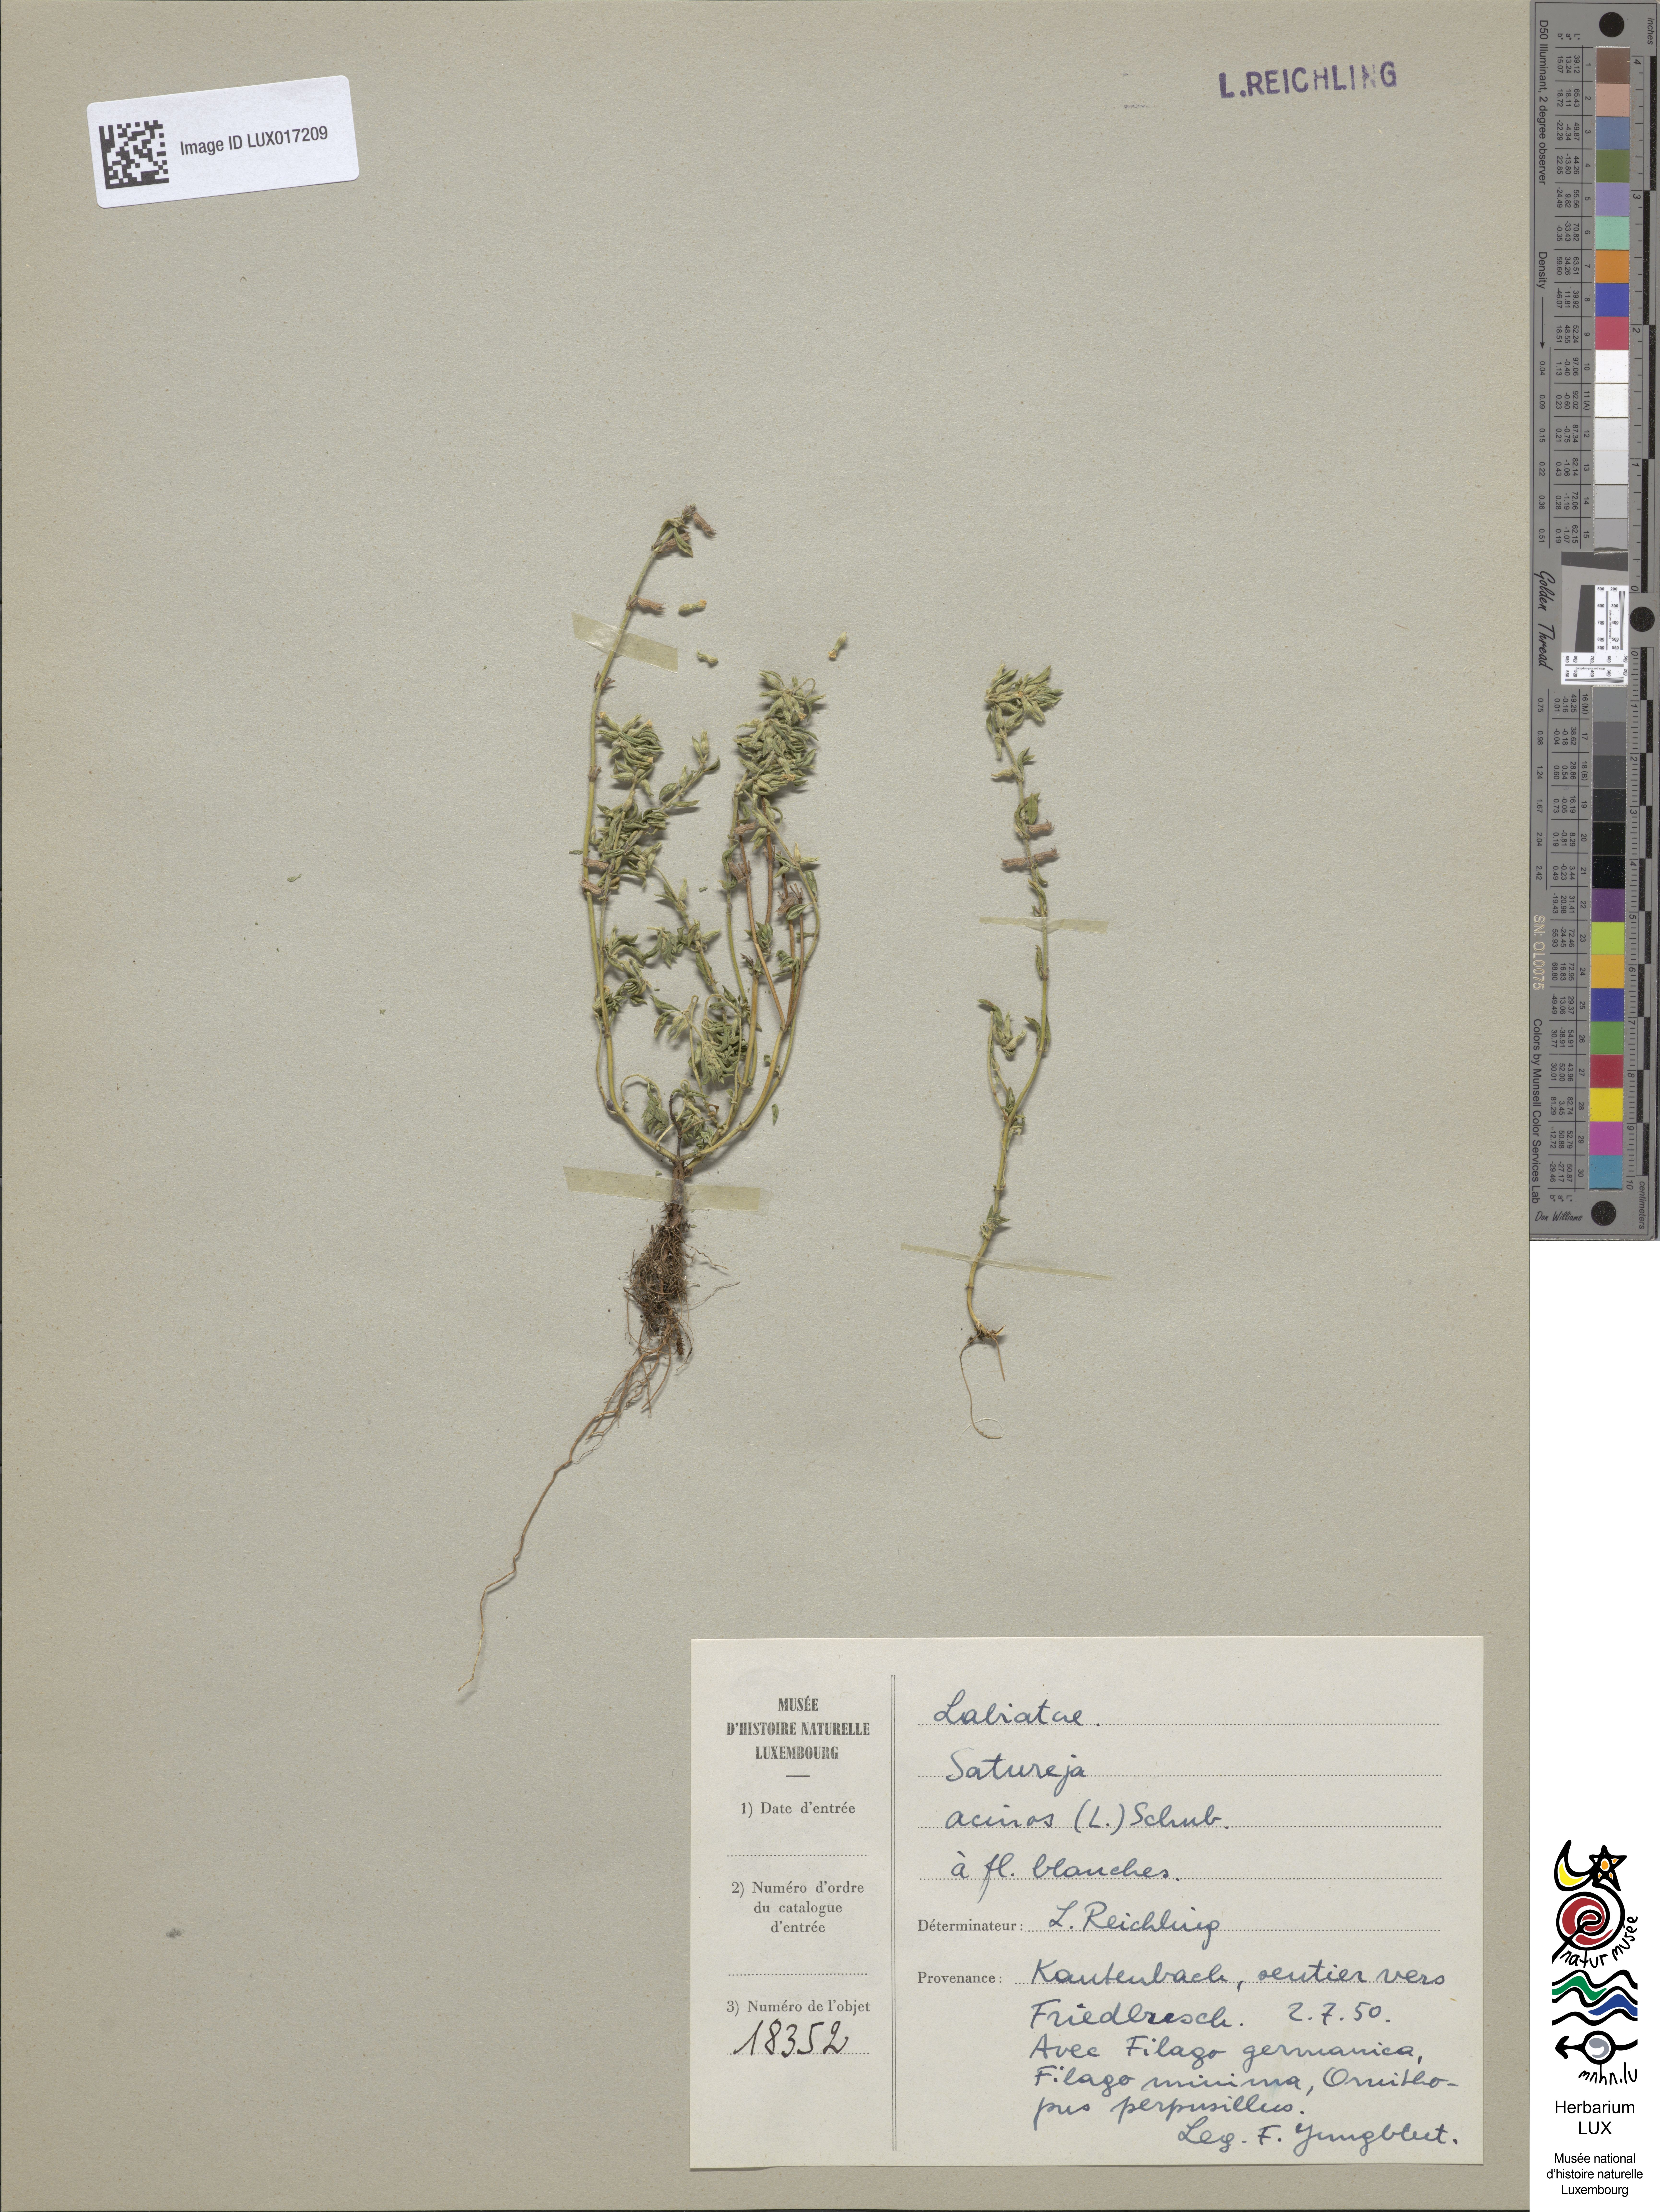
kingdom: Plantae
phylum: Tracheophyta
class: Magnoliopsida
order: Lamiales
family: Lamiaceae
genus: Clinopodium
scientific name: Clinopodium acinos
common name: Basil thyme
